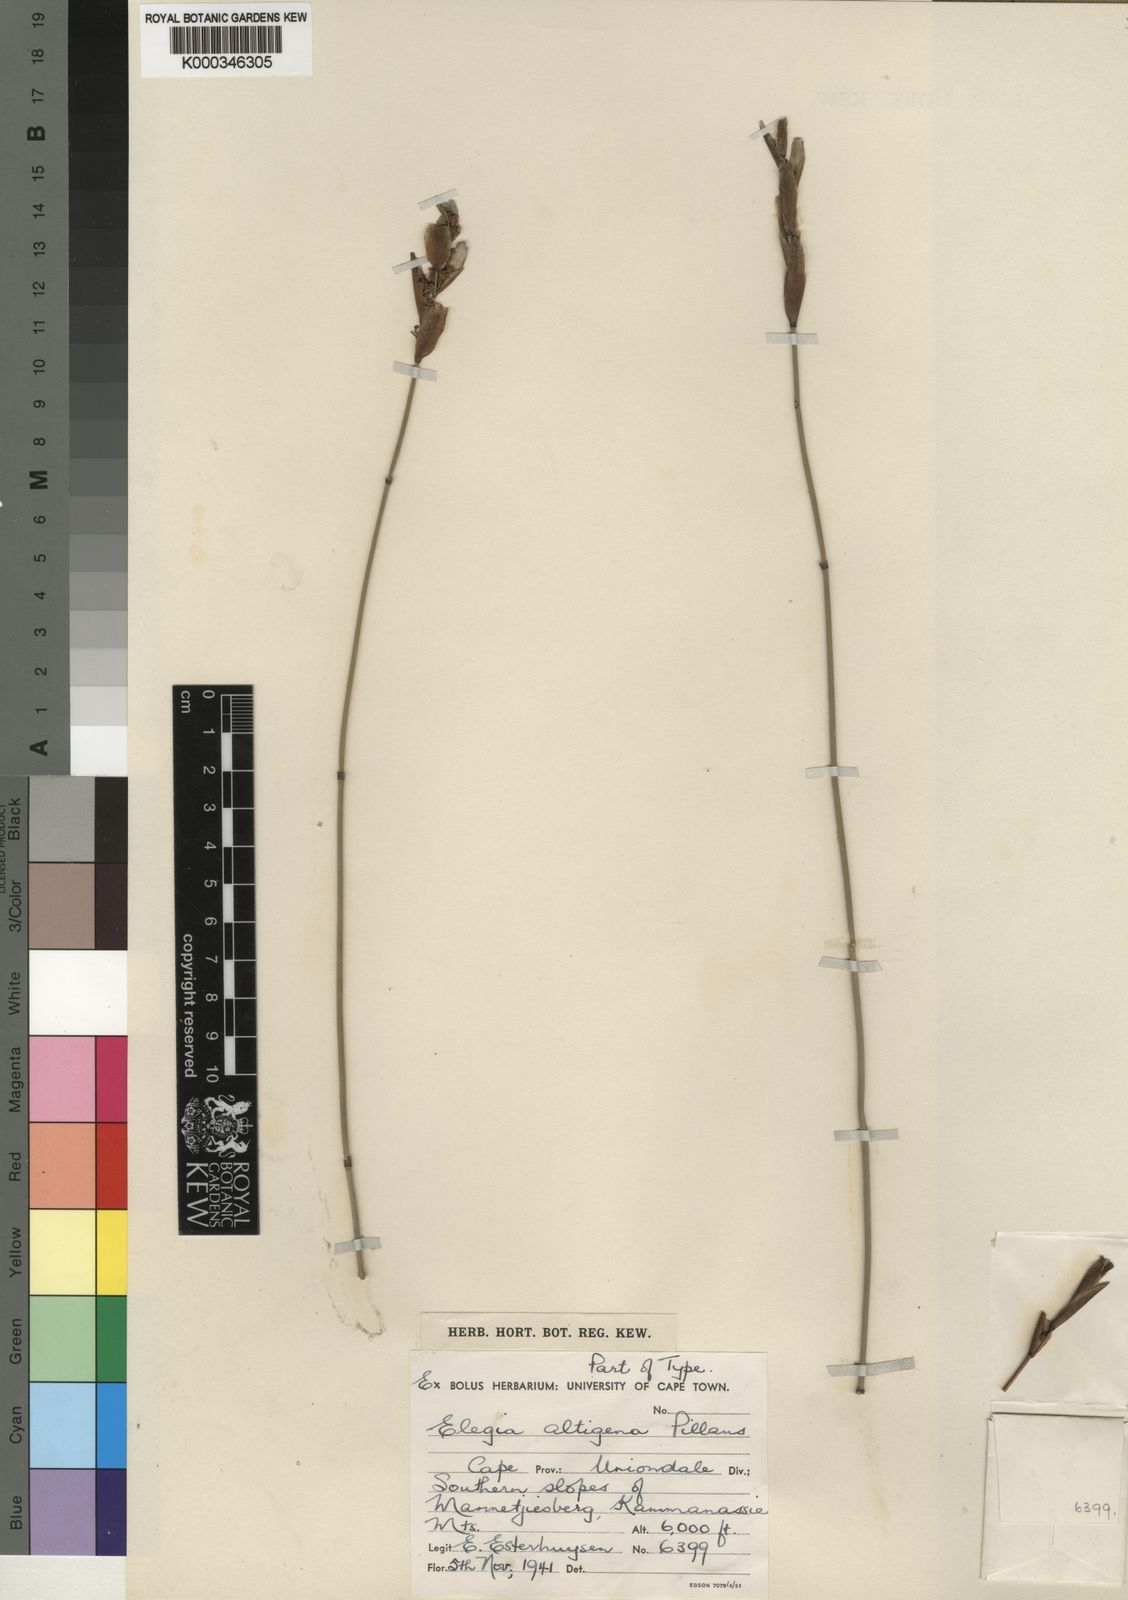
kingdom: Plantae
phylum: Tracheophyta
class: Liliopsida
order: Poales
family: Restionaceae
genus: Elegia
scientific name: Elegia altigena
